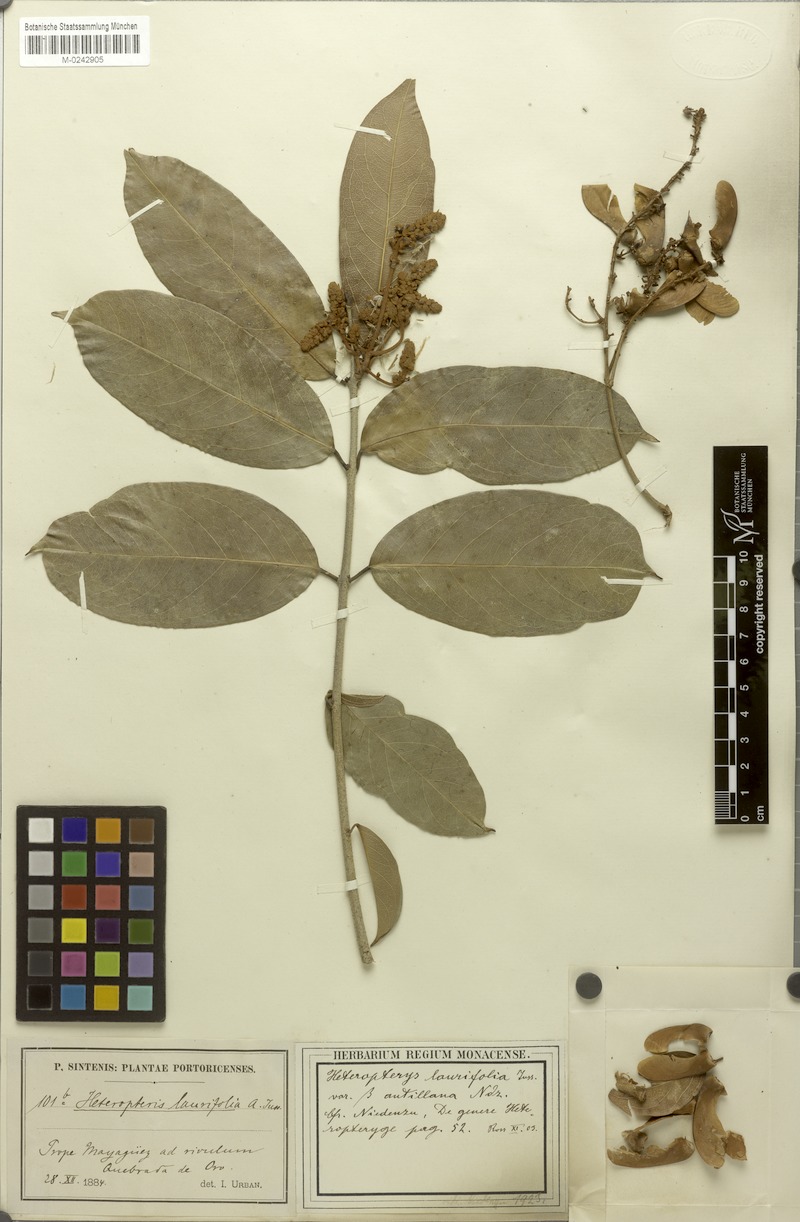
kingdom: Plantae
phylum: Tracheophyta
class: Magnoliopsida
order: Malpighiales
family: Malpighiaceae
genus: Heteropterys
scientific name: Heteropterys laurifolia
